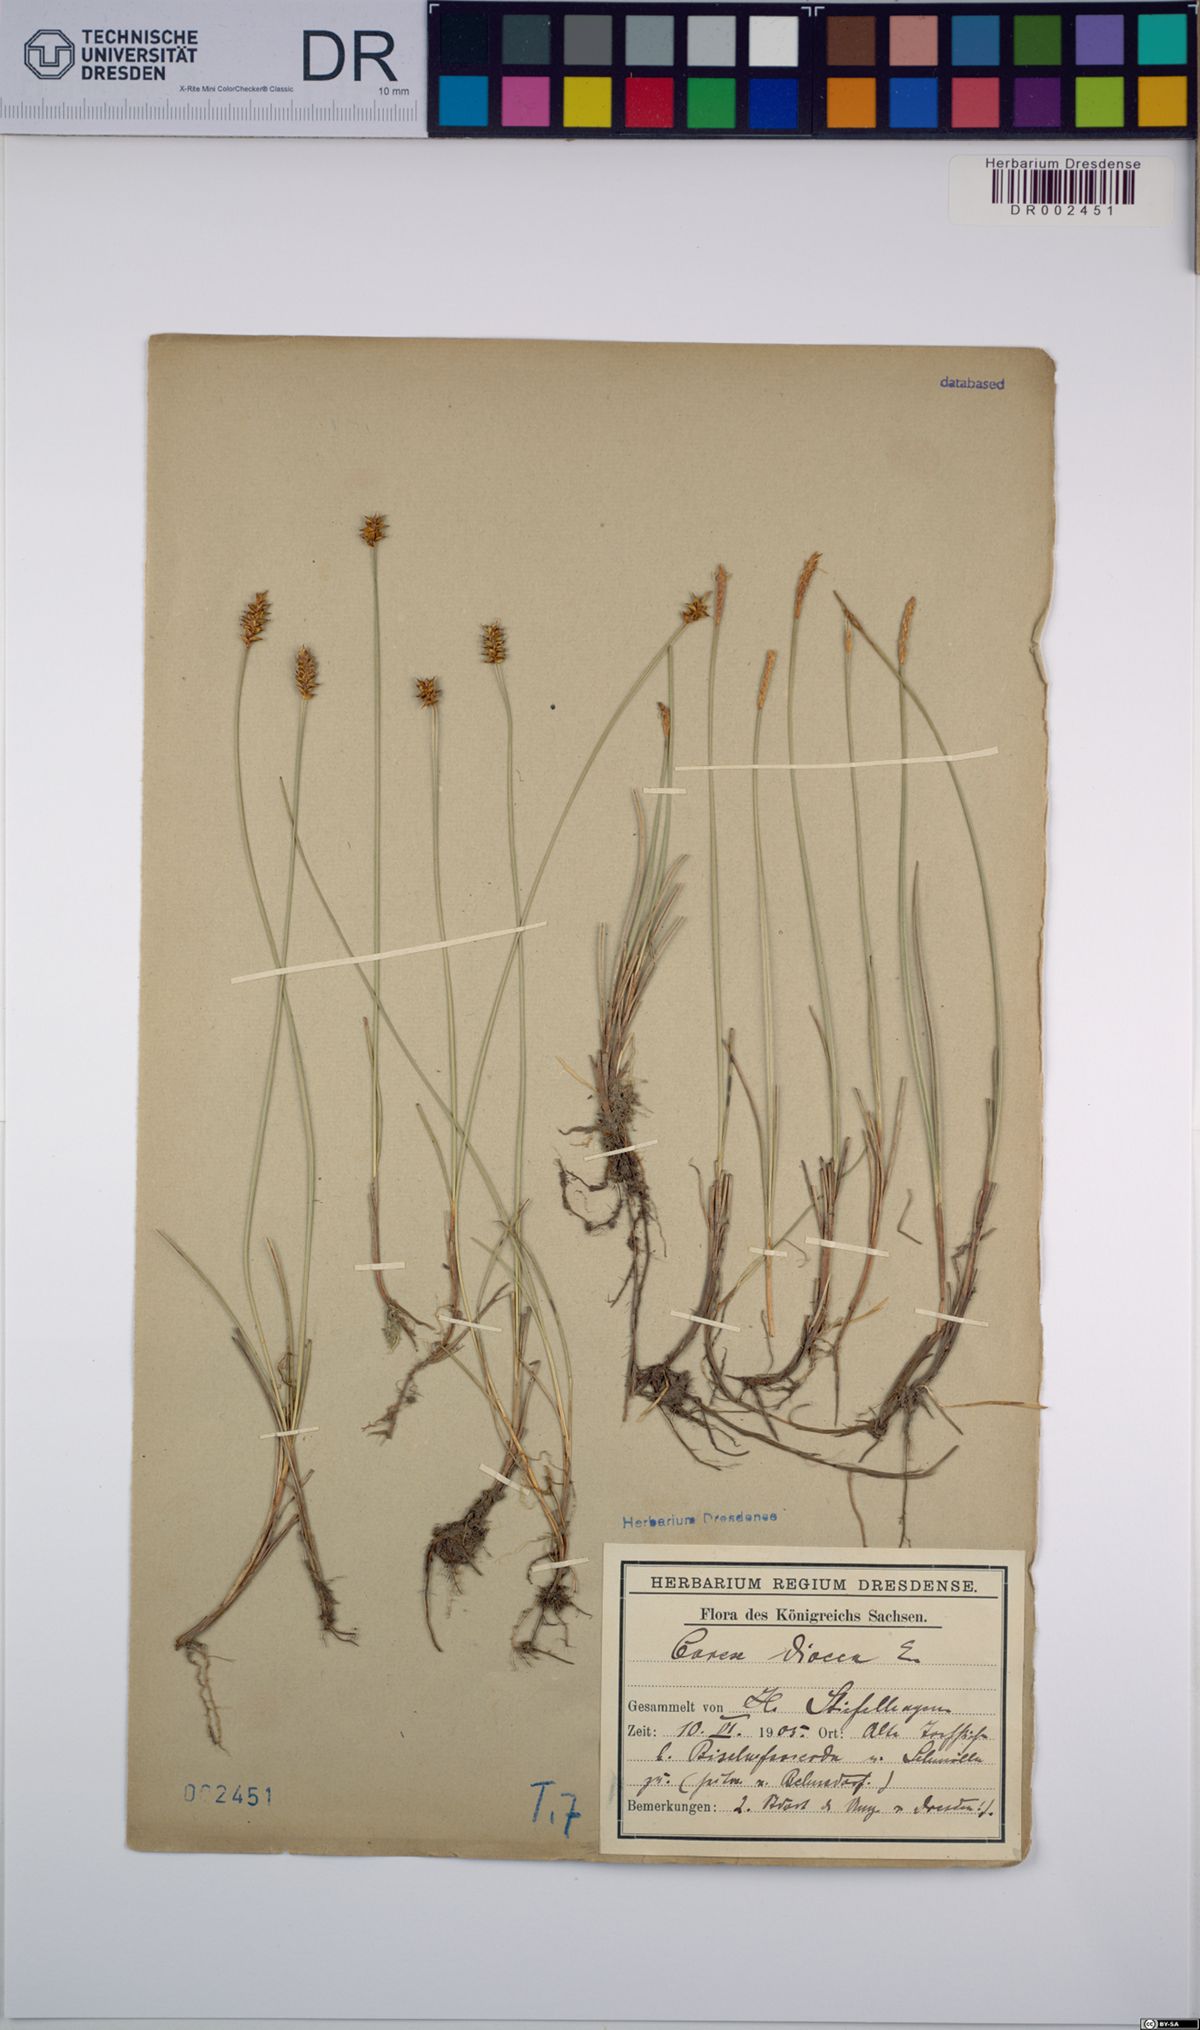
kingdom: Plantae
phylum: Tracheophyta
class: Liliopsida
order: Poales
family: Cyperaceae
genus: Carex
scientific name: Carex dioica
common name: Dioecious sedge
